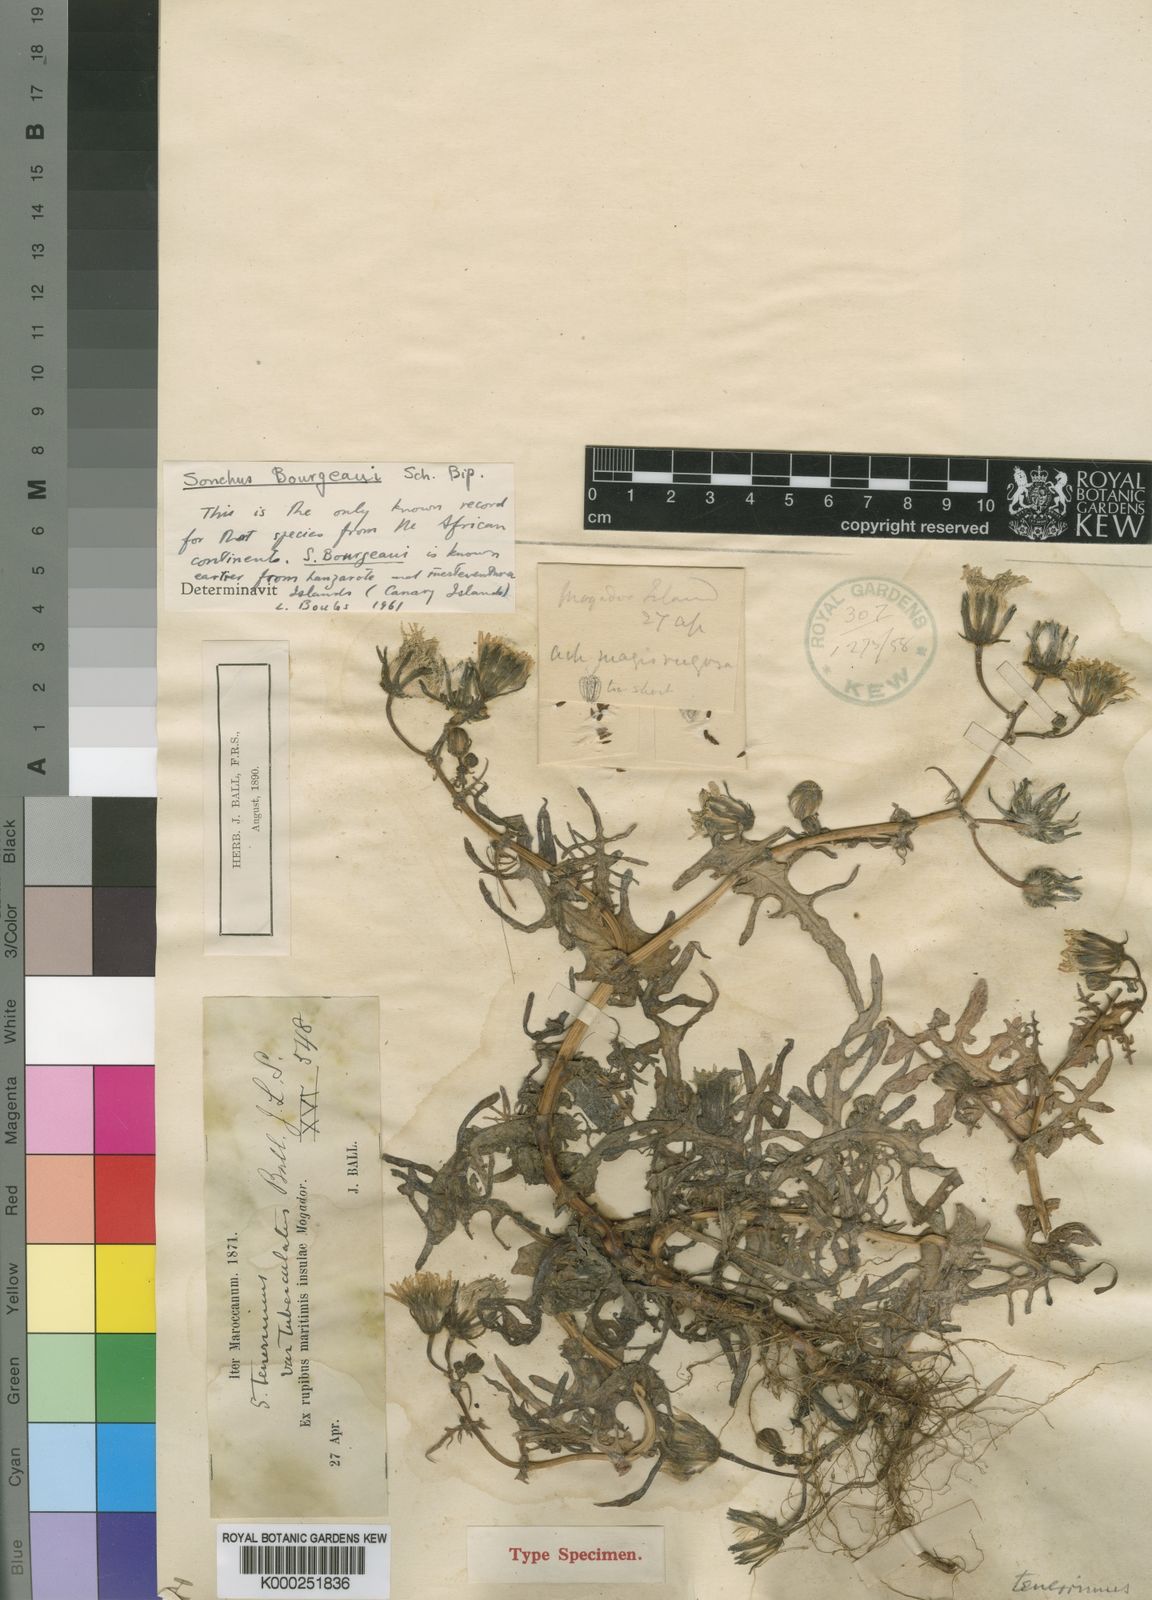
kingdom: Plantae
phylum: Tracheophyta
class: Magnoliopsida
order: Asterales
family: Asteraceae
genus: Sonchus
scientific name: Sonchus bourgeaui
